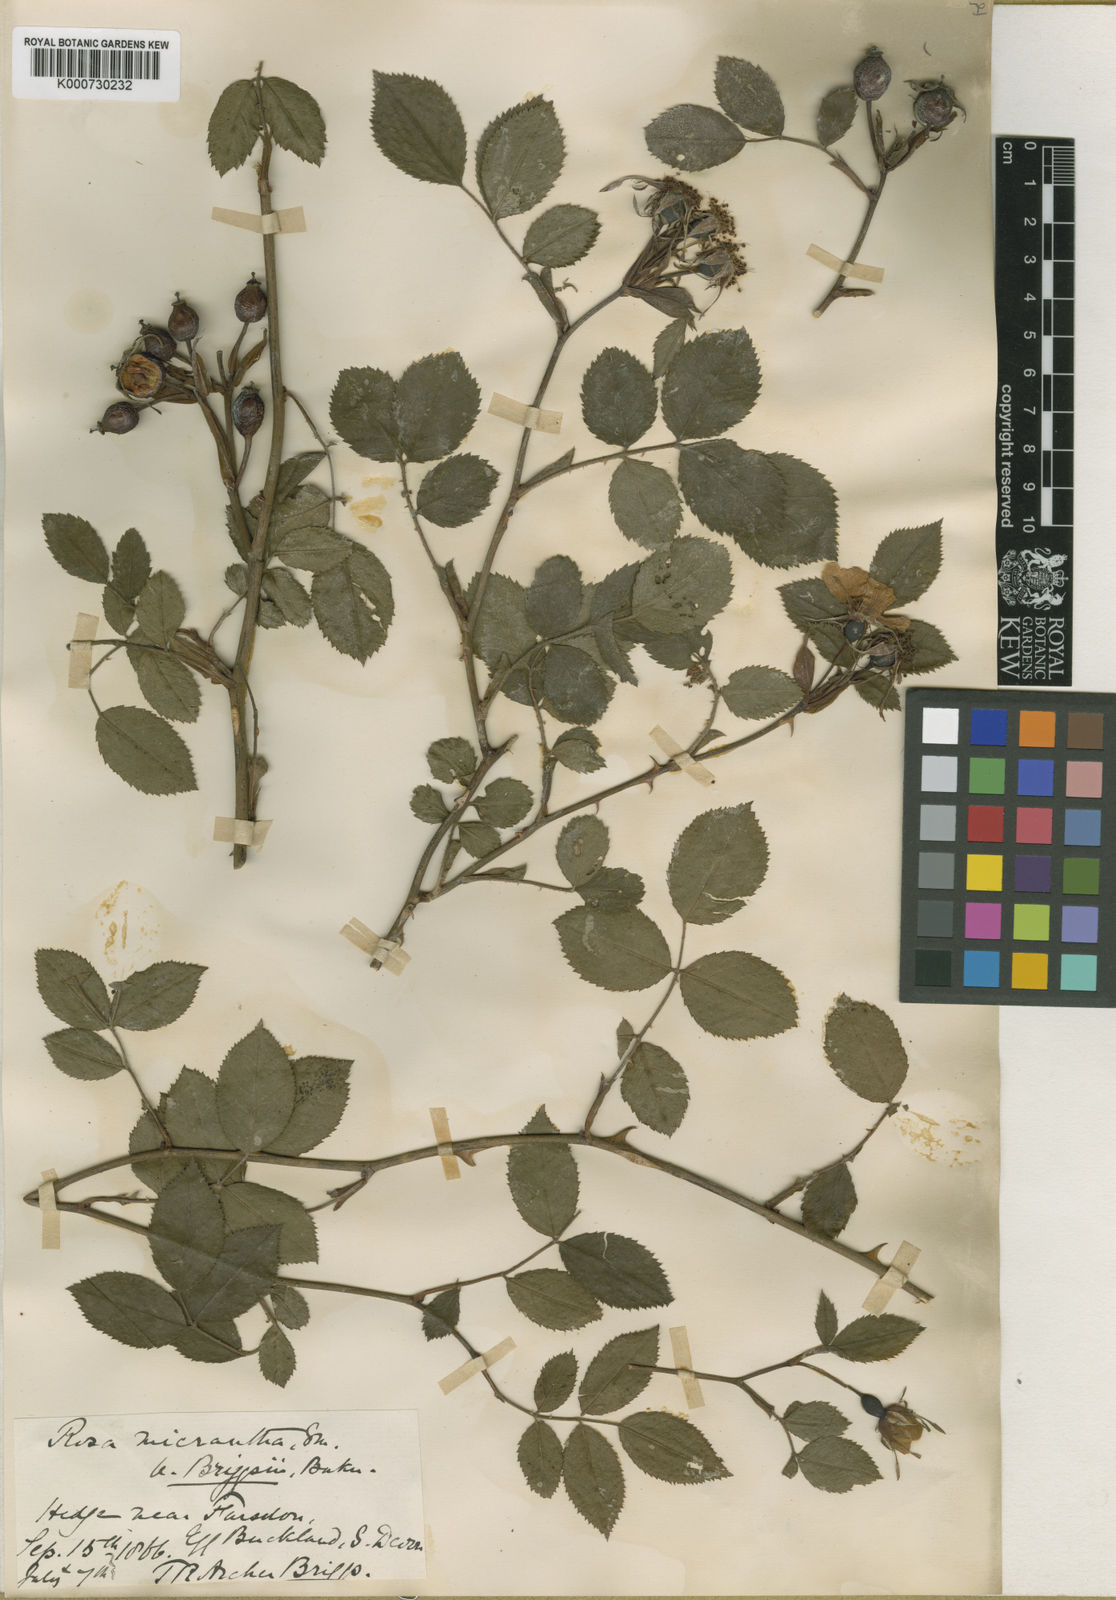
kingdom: Plantae
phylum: Tracheophyta
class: Magnoliopsida
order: Rosales
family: Rosaceae
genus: Rosa
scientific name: Rosa
